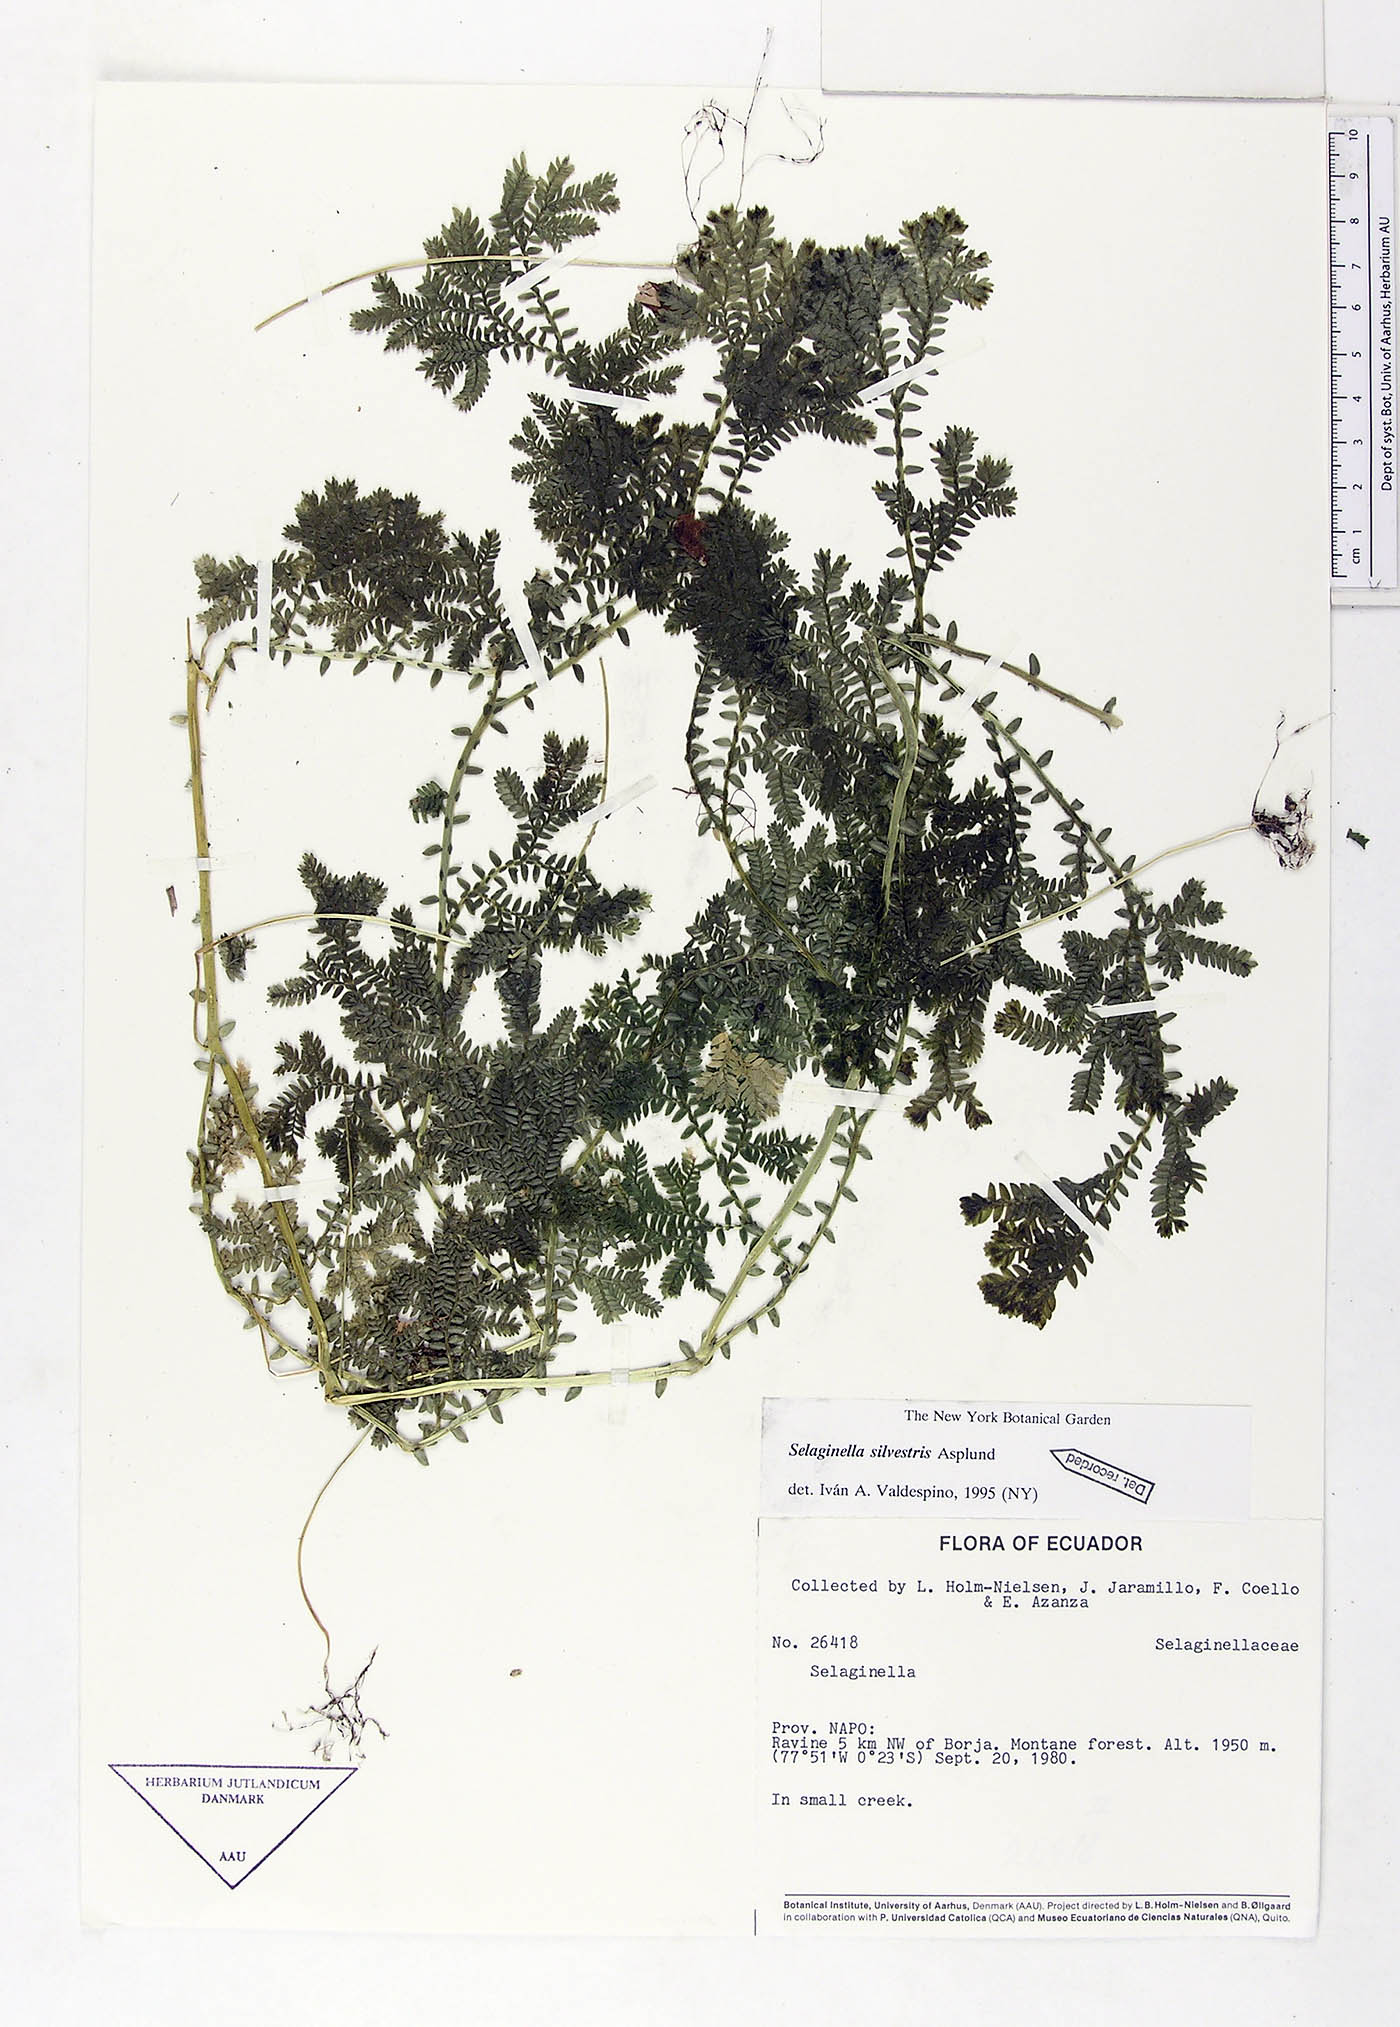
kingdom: Plantae
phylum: Tracheophyta
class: Lycopodiopsida
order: Selaginellales
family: Selaginellaceae
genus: Selaginella
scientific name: Selaginella silvestris
